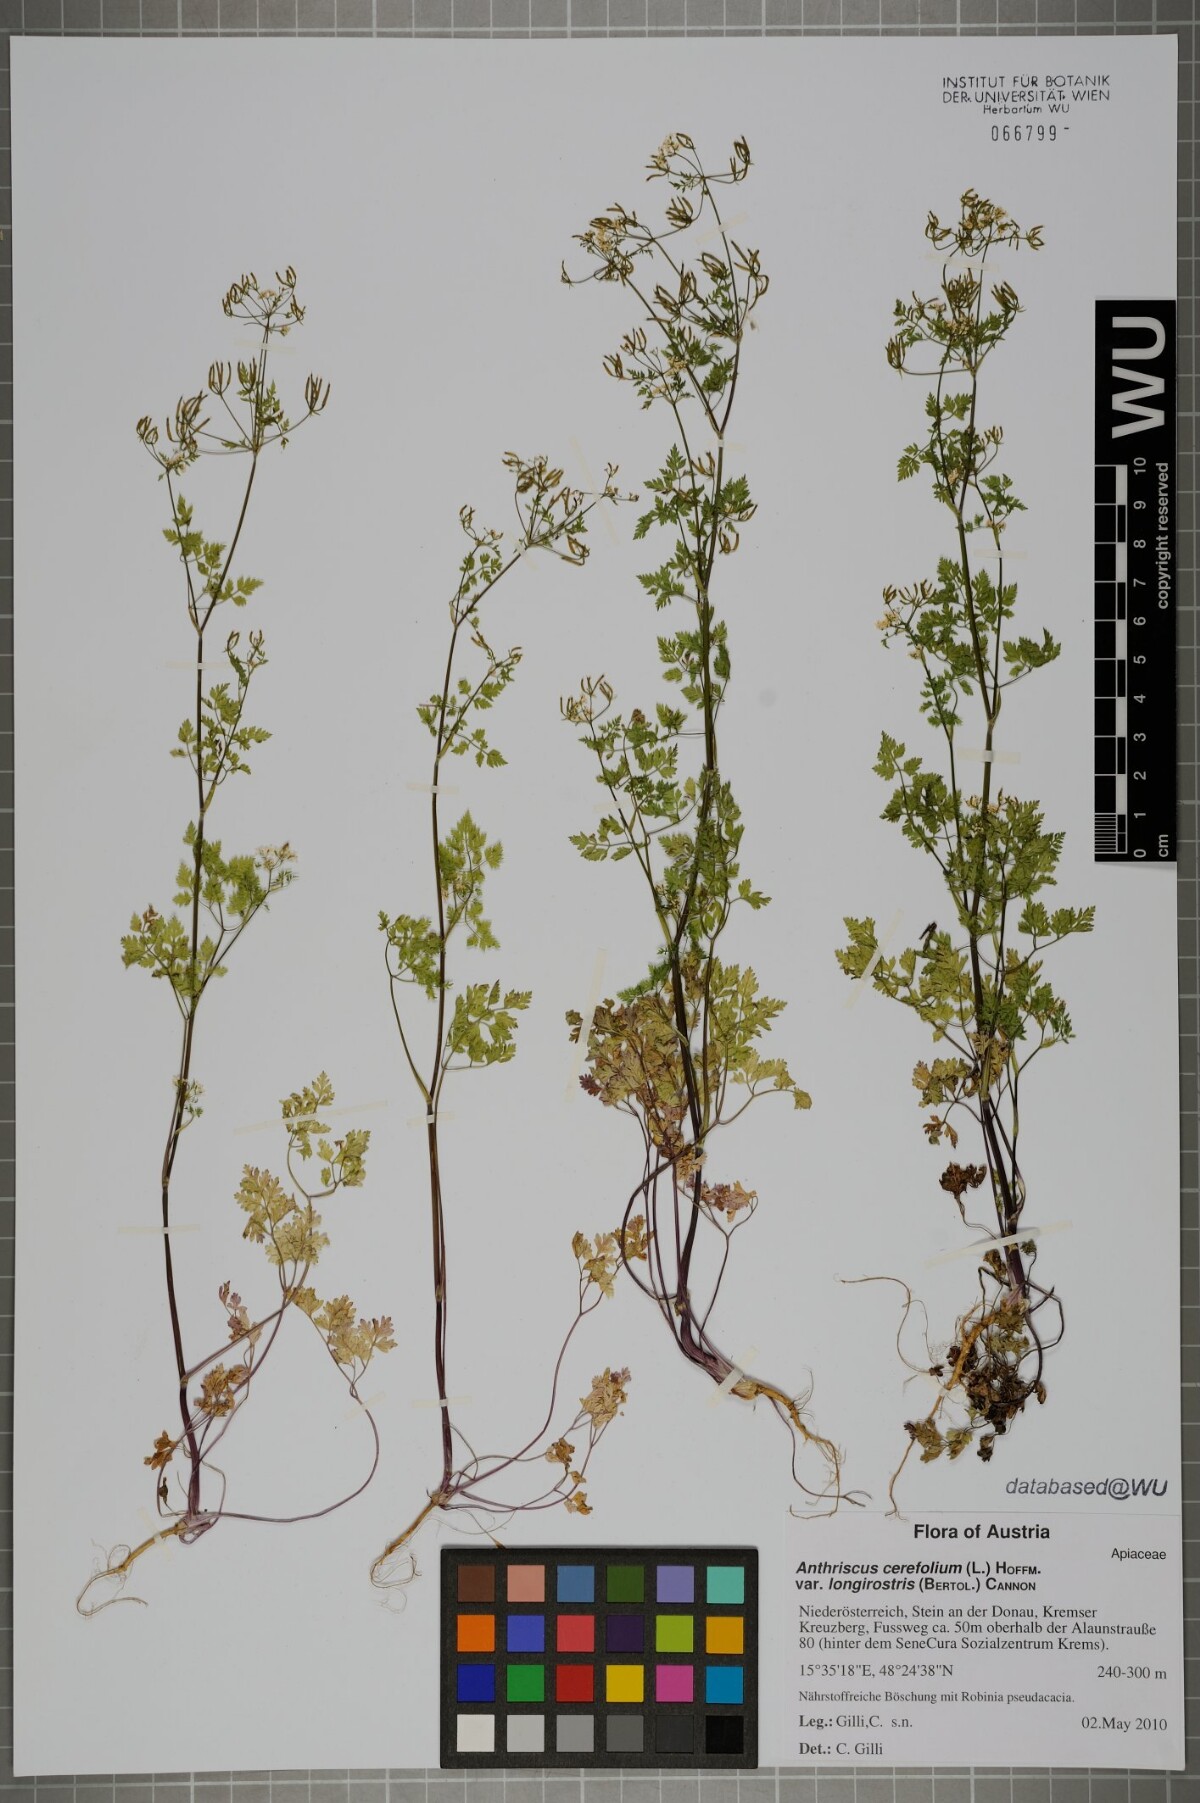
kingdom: Plantae
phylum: Tracheophyta
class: Magnoliopsida
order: Apiales
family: Apiaceae
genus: Anthriscus
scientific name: Anthriscus cerefolium
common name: Garden chervil
